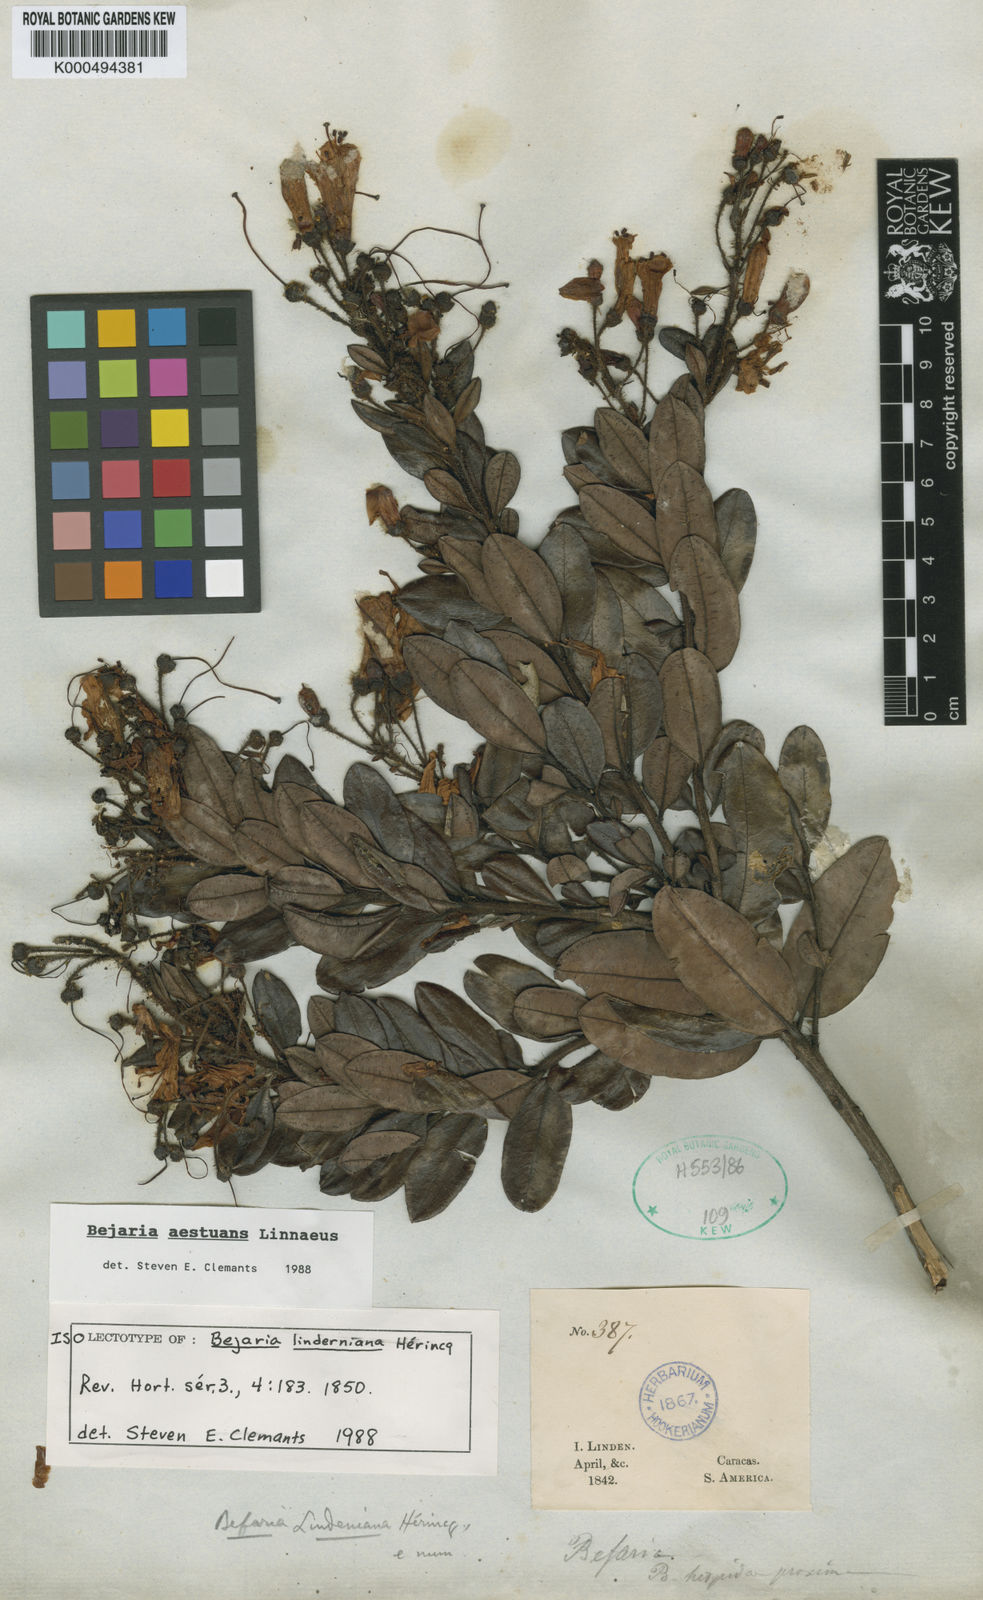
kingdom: Plantae
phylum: Tracheophyta
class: Magnoliopsida
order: Ericales
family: Ericaceae
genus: Bejaria
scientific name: Bejaria
